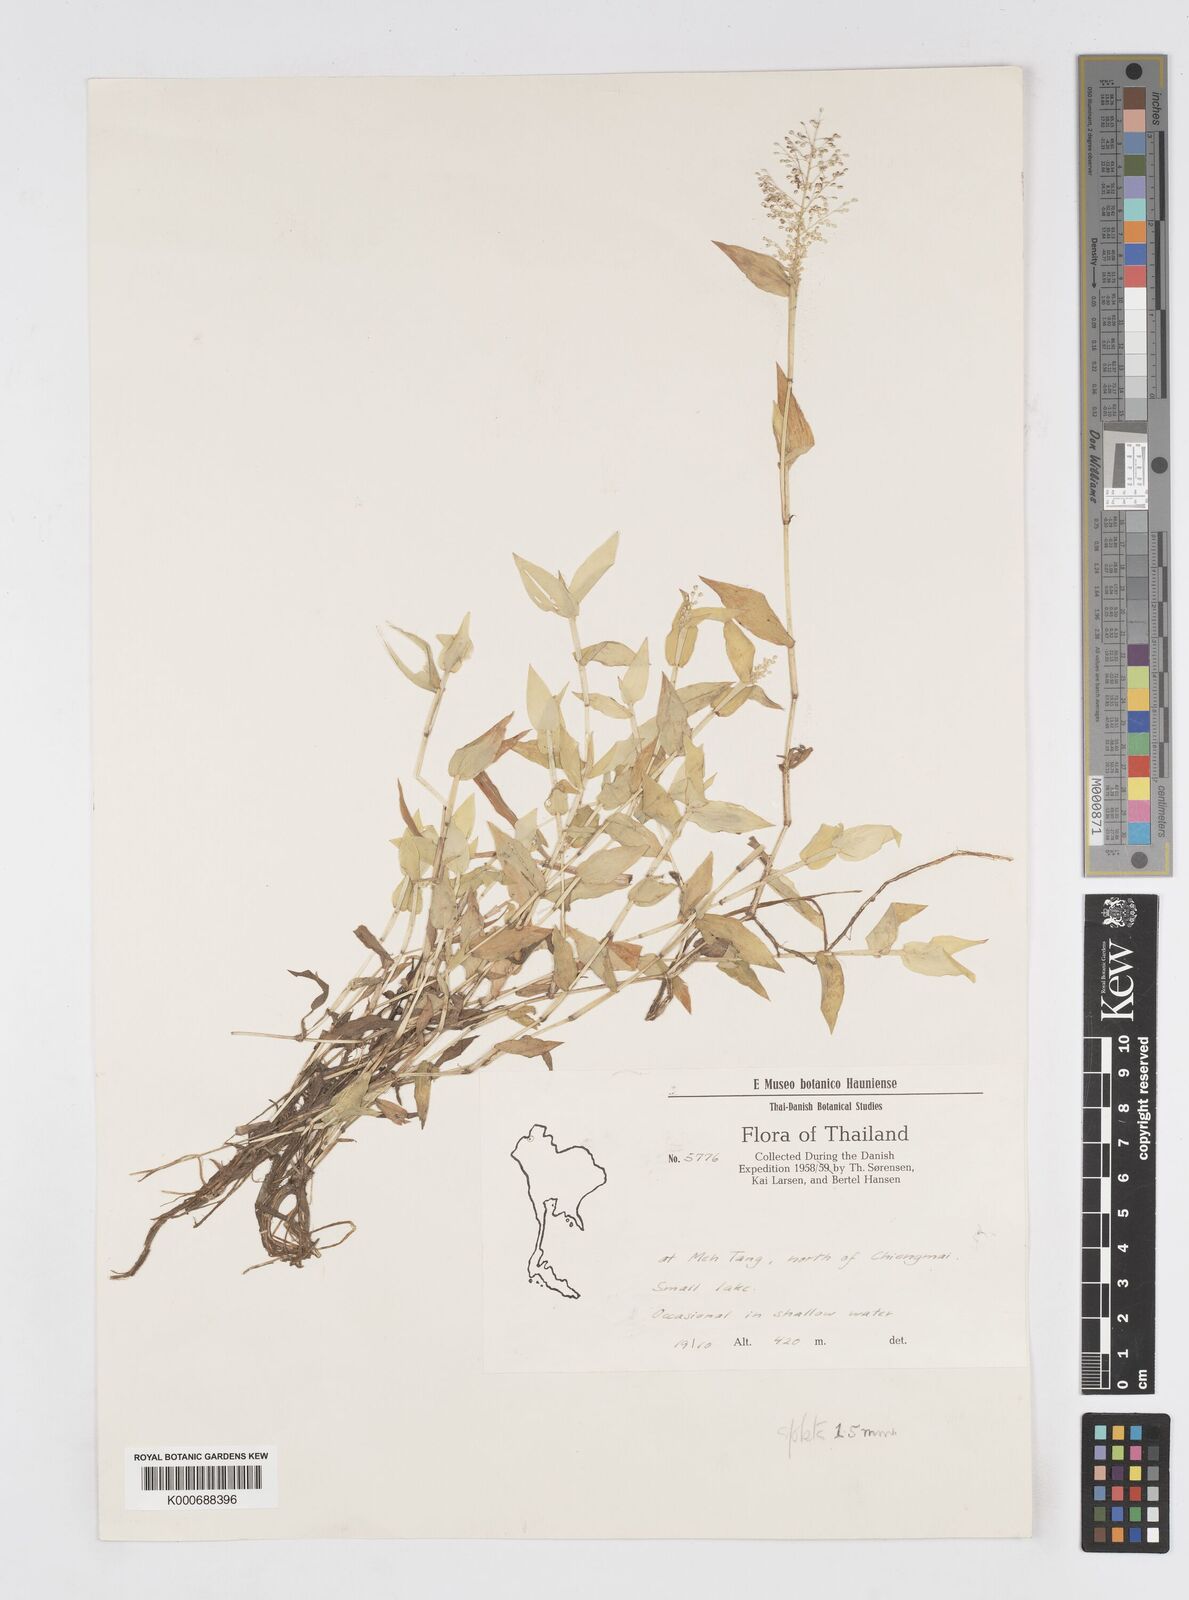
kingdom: Plantae
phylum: Tracheophyta
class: Liliopsida
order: Poales
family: Poaceae
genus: Isachne
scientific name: Isachne pulchella
